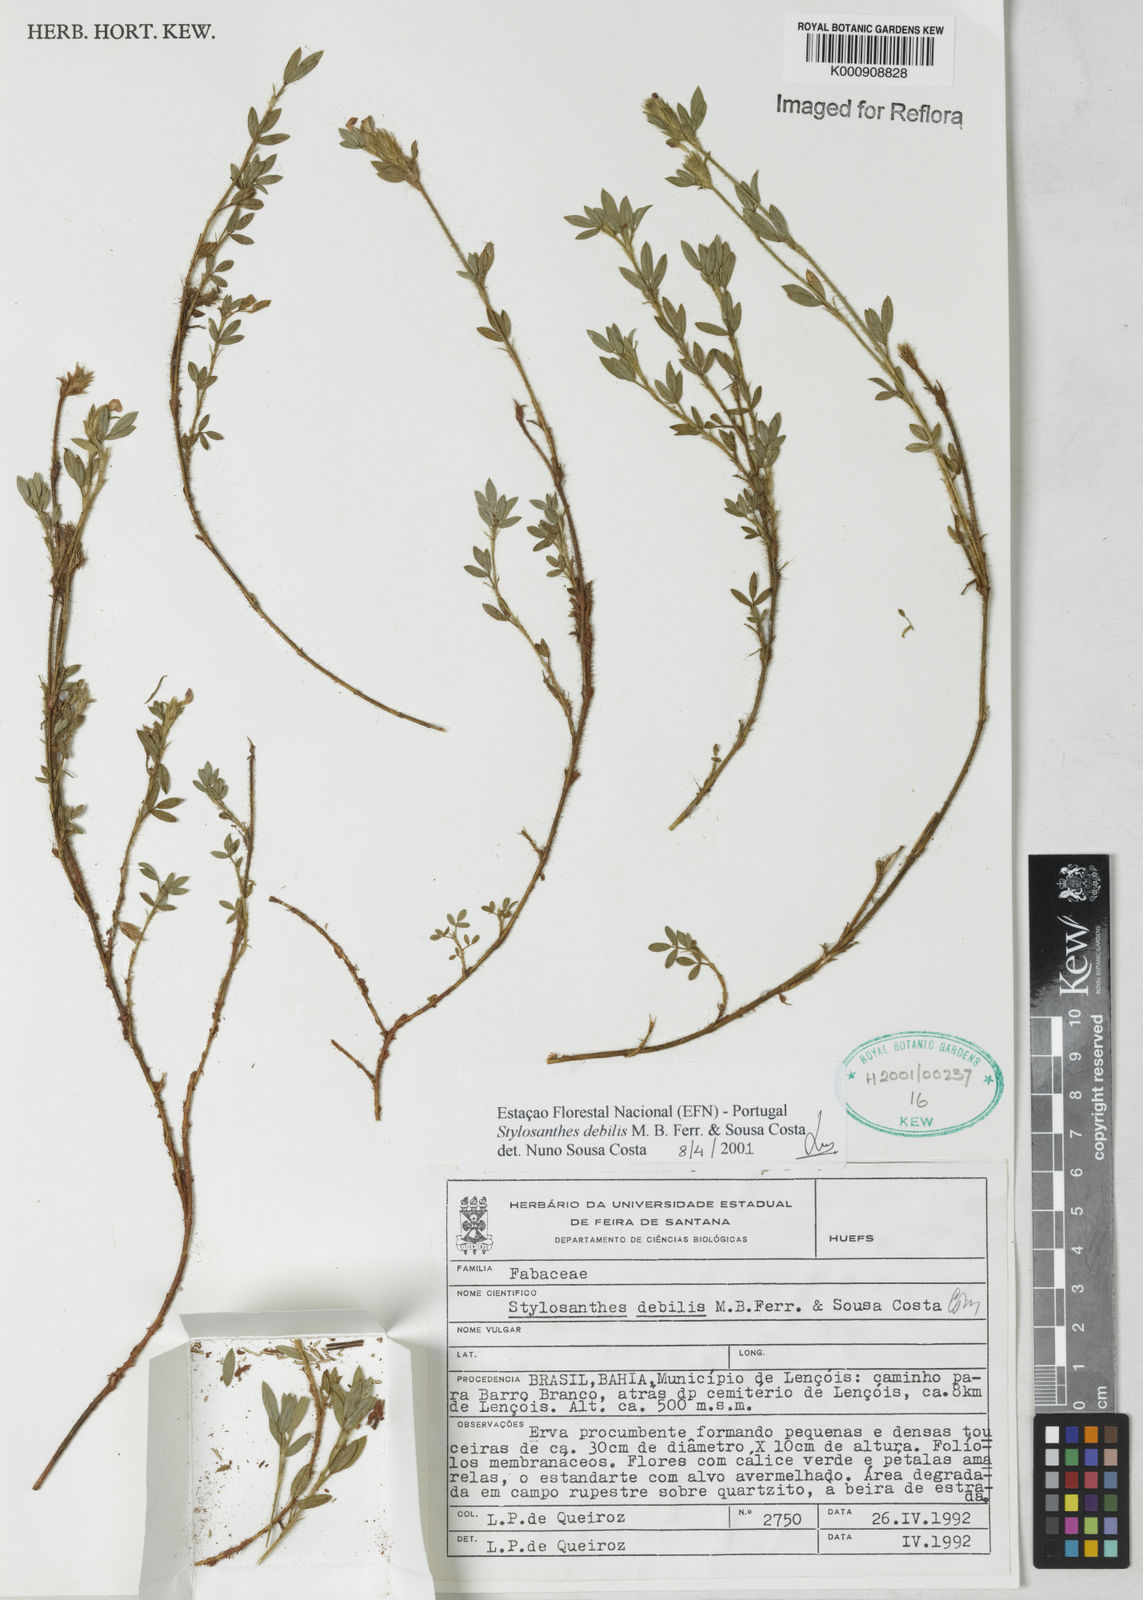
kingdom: Plantae
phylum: Tracheophyta
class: Magnoliopsida
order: Fabales
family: Fabaceae
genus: Stylosanthes
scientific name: Stylosanthes viscosa
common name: Viscid pencil-flower
